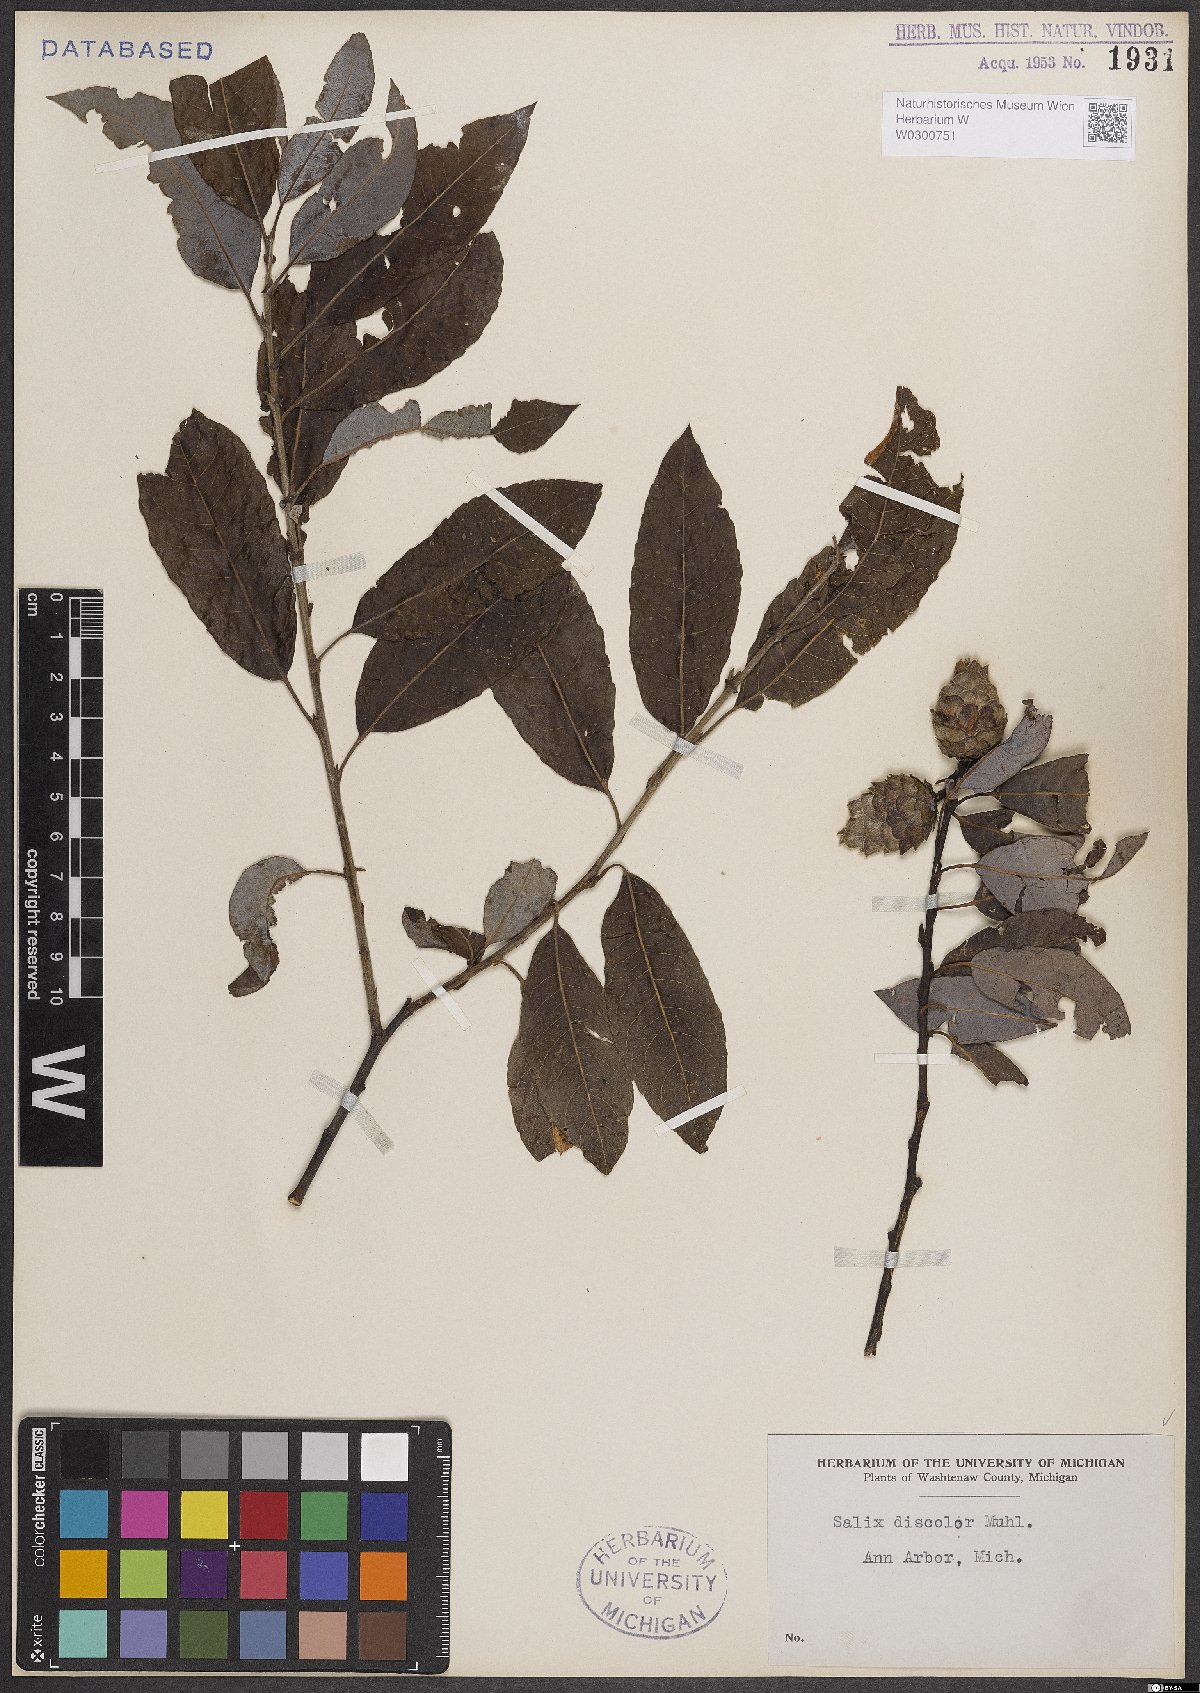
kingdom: Plantae
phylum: Tracheophyta
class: Magnoliopsida
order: Malpighiales
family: Salicaceae
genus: Salix
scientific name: Salix discolor
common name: Glaucous willow
